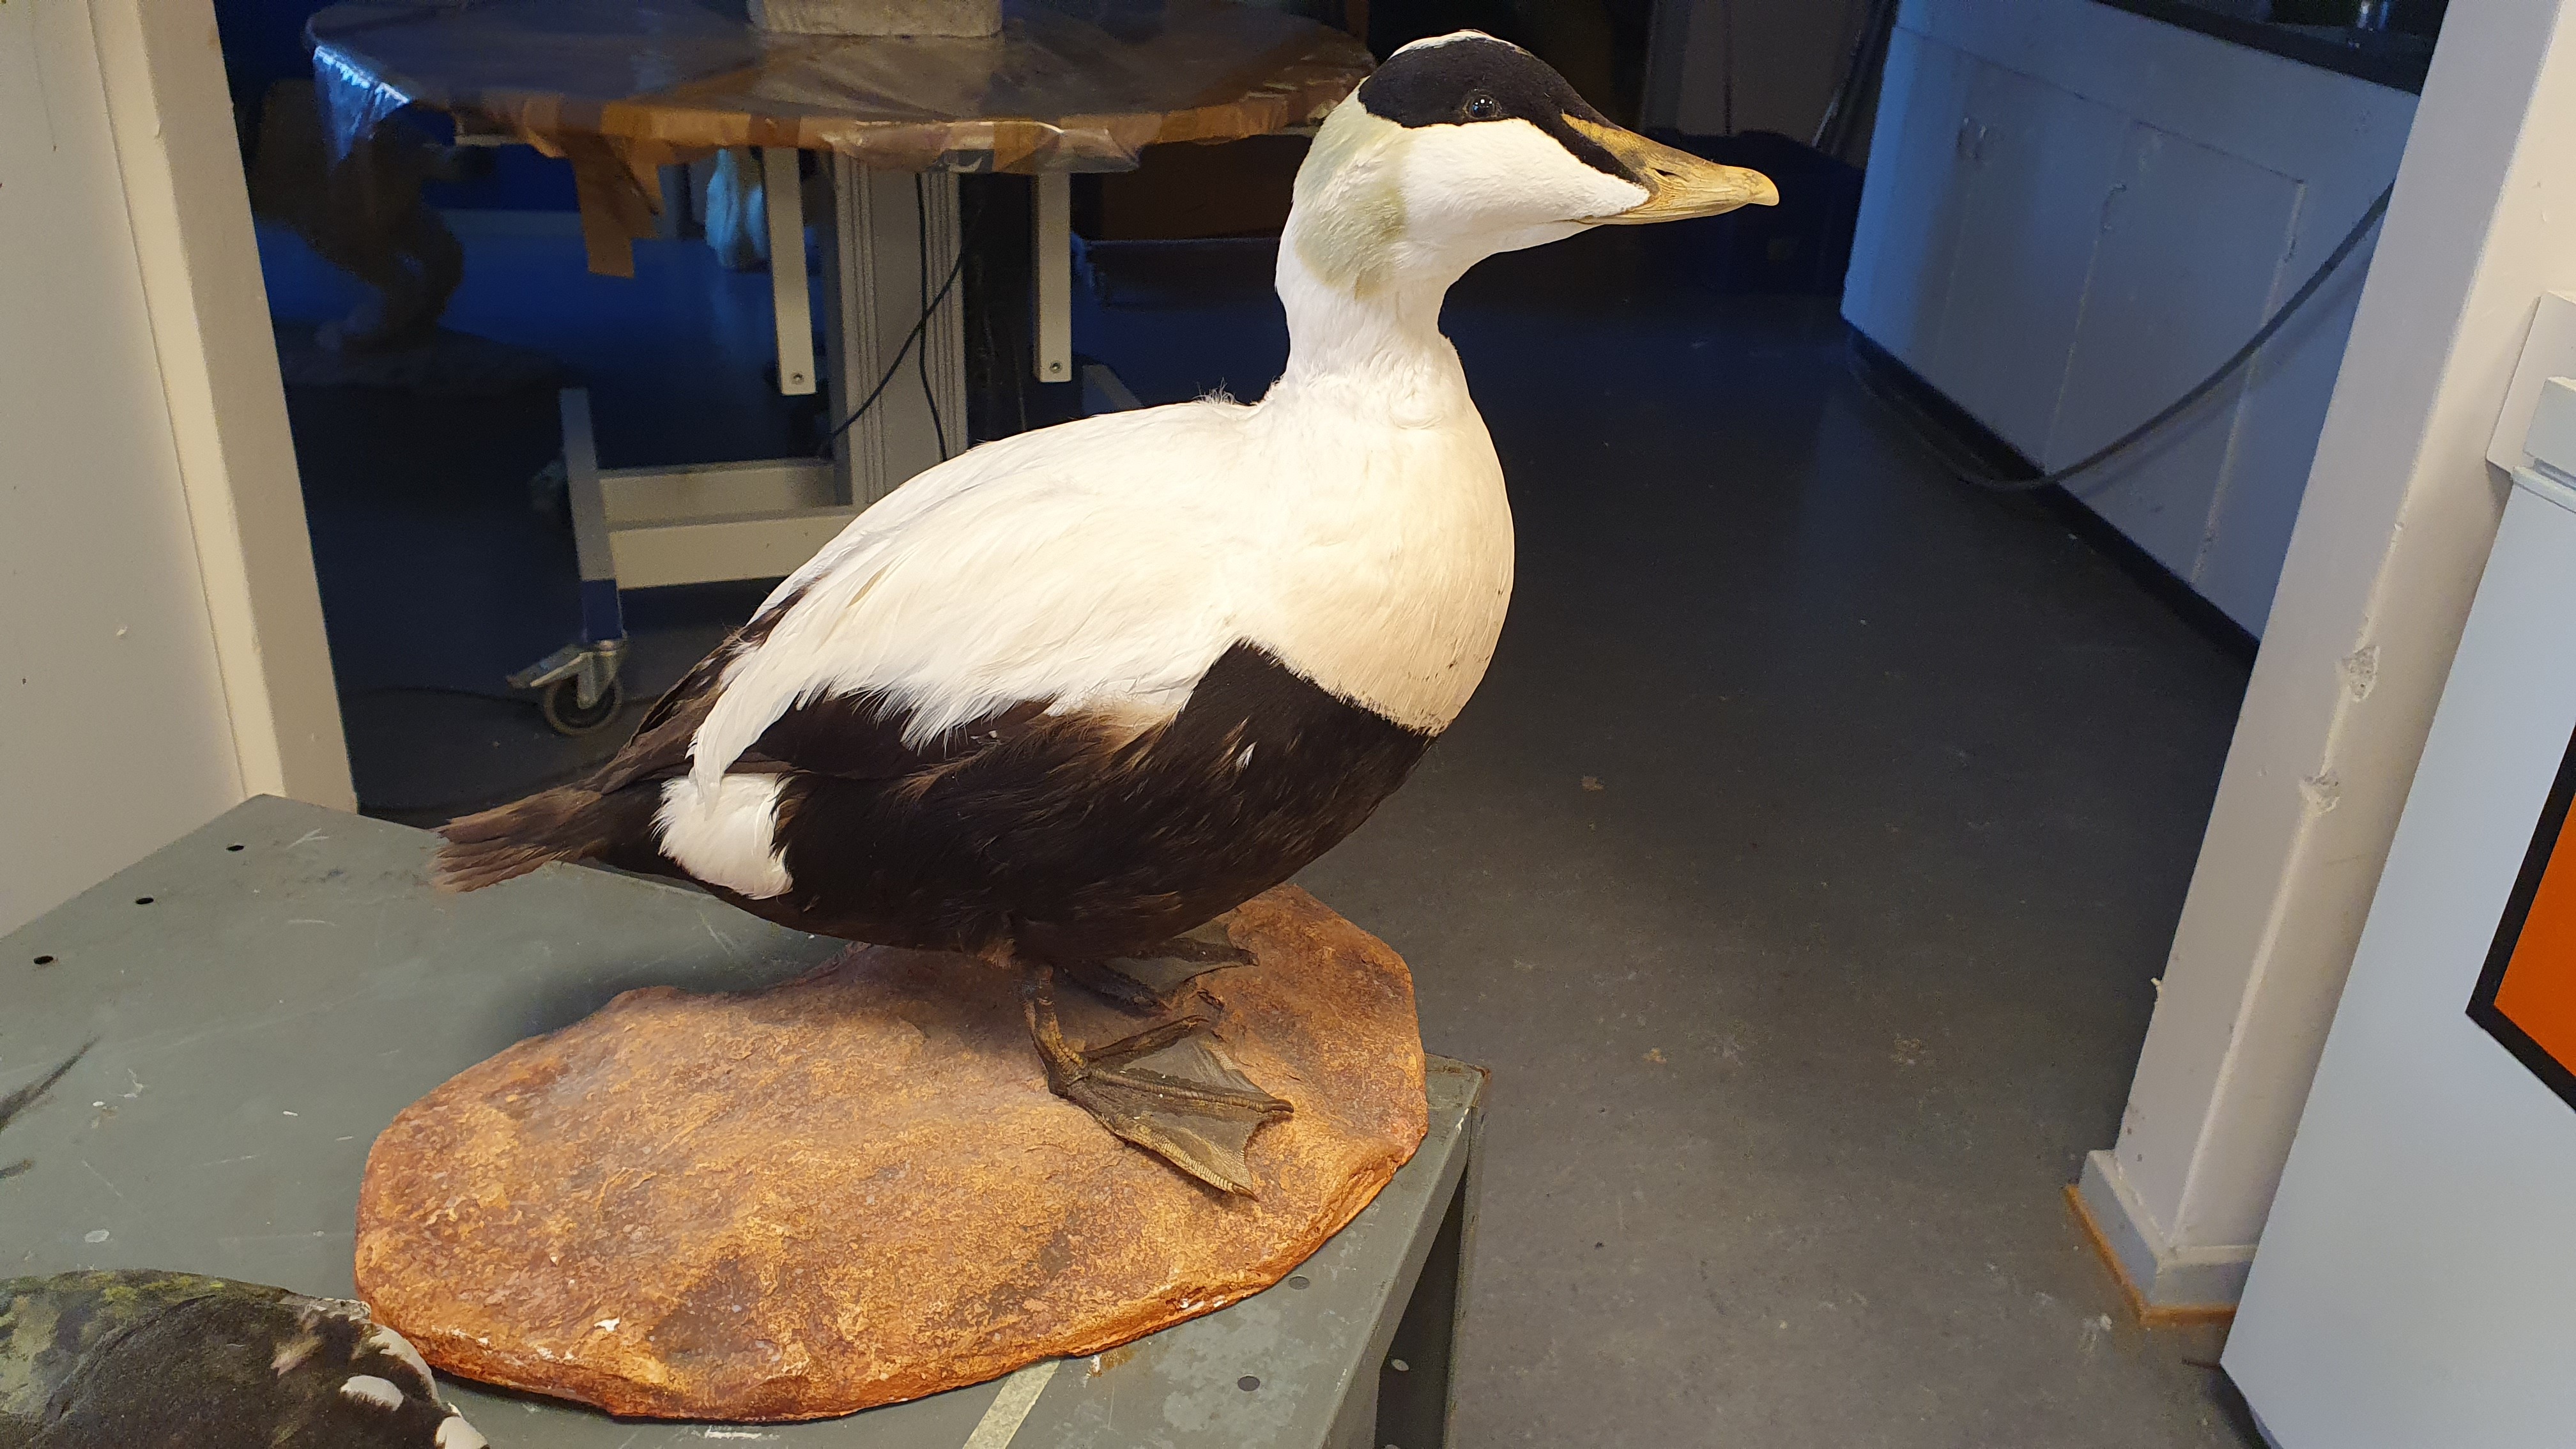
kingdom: Animalia
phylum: Chordata
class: Aves
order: Anseriformes
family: Anatidae
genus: Somateria
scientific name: Somateria mollissima
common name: Common eider
